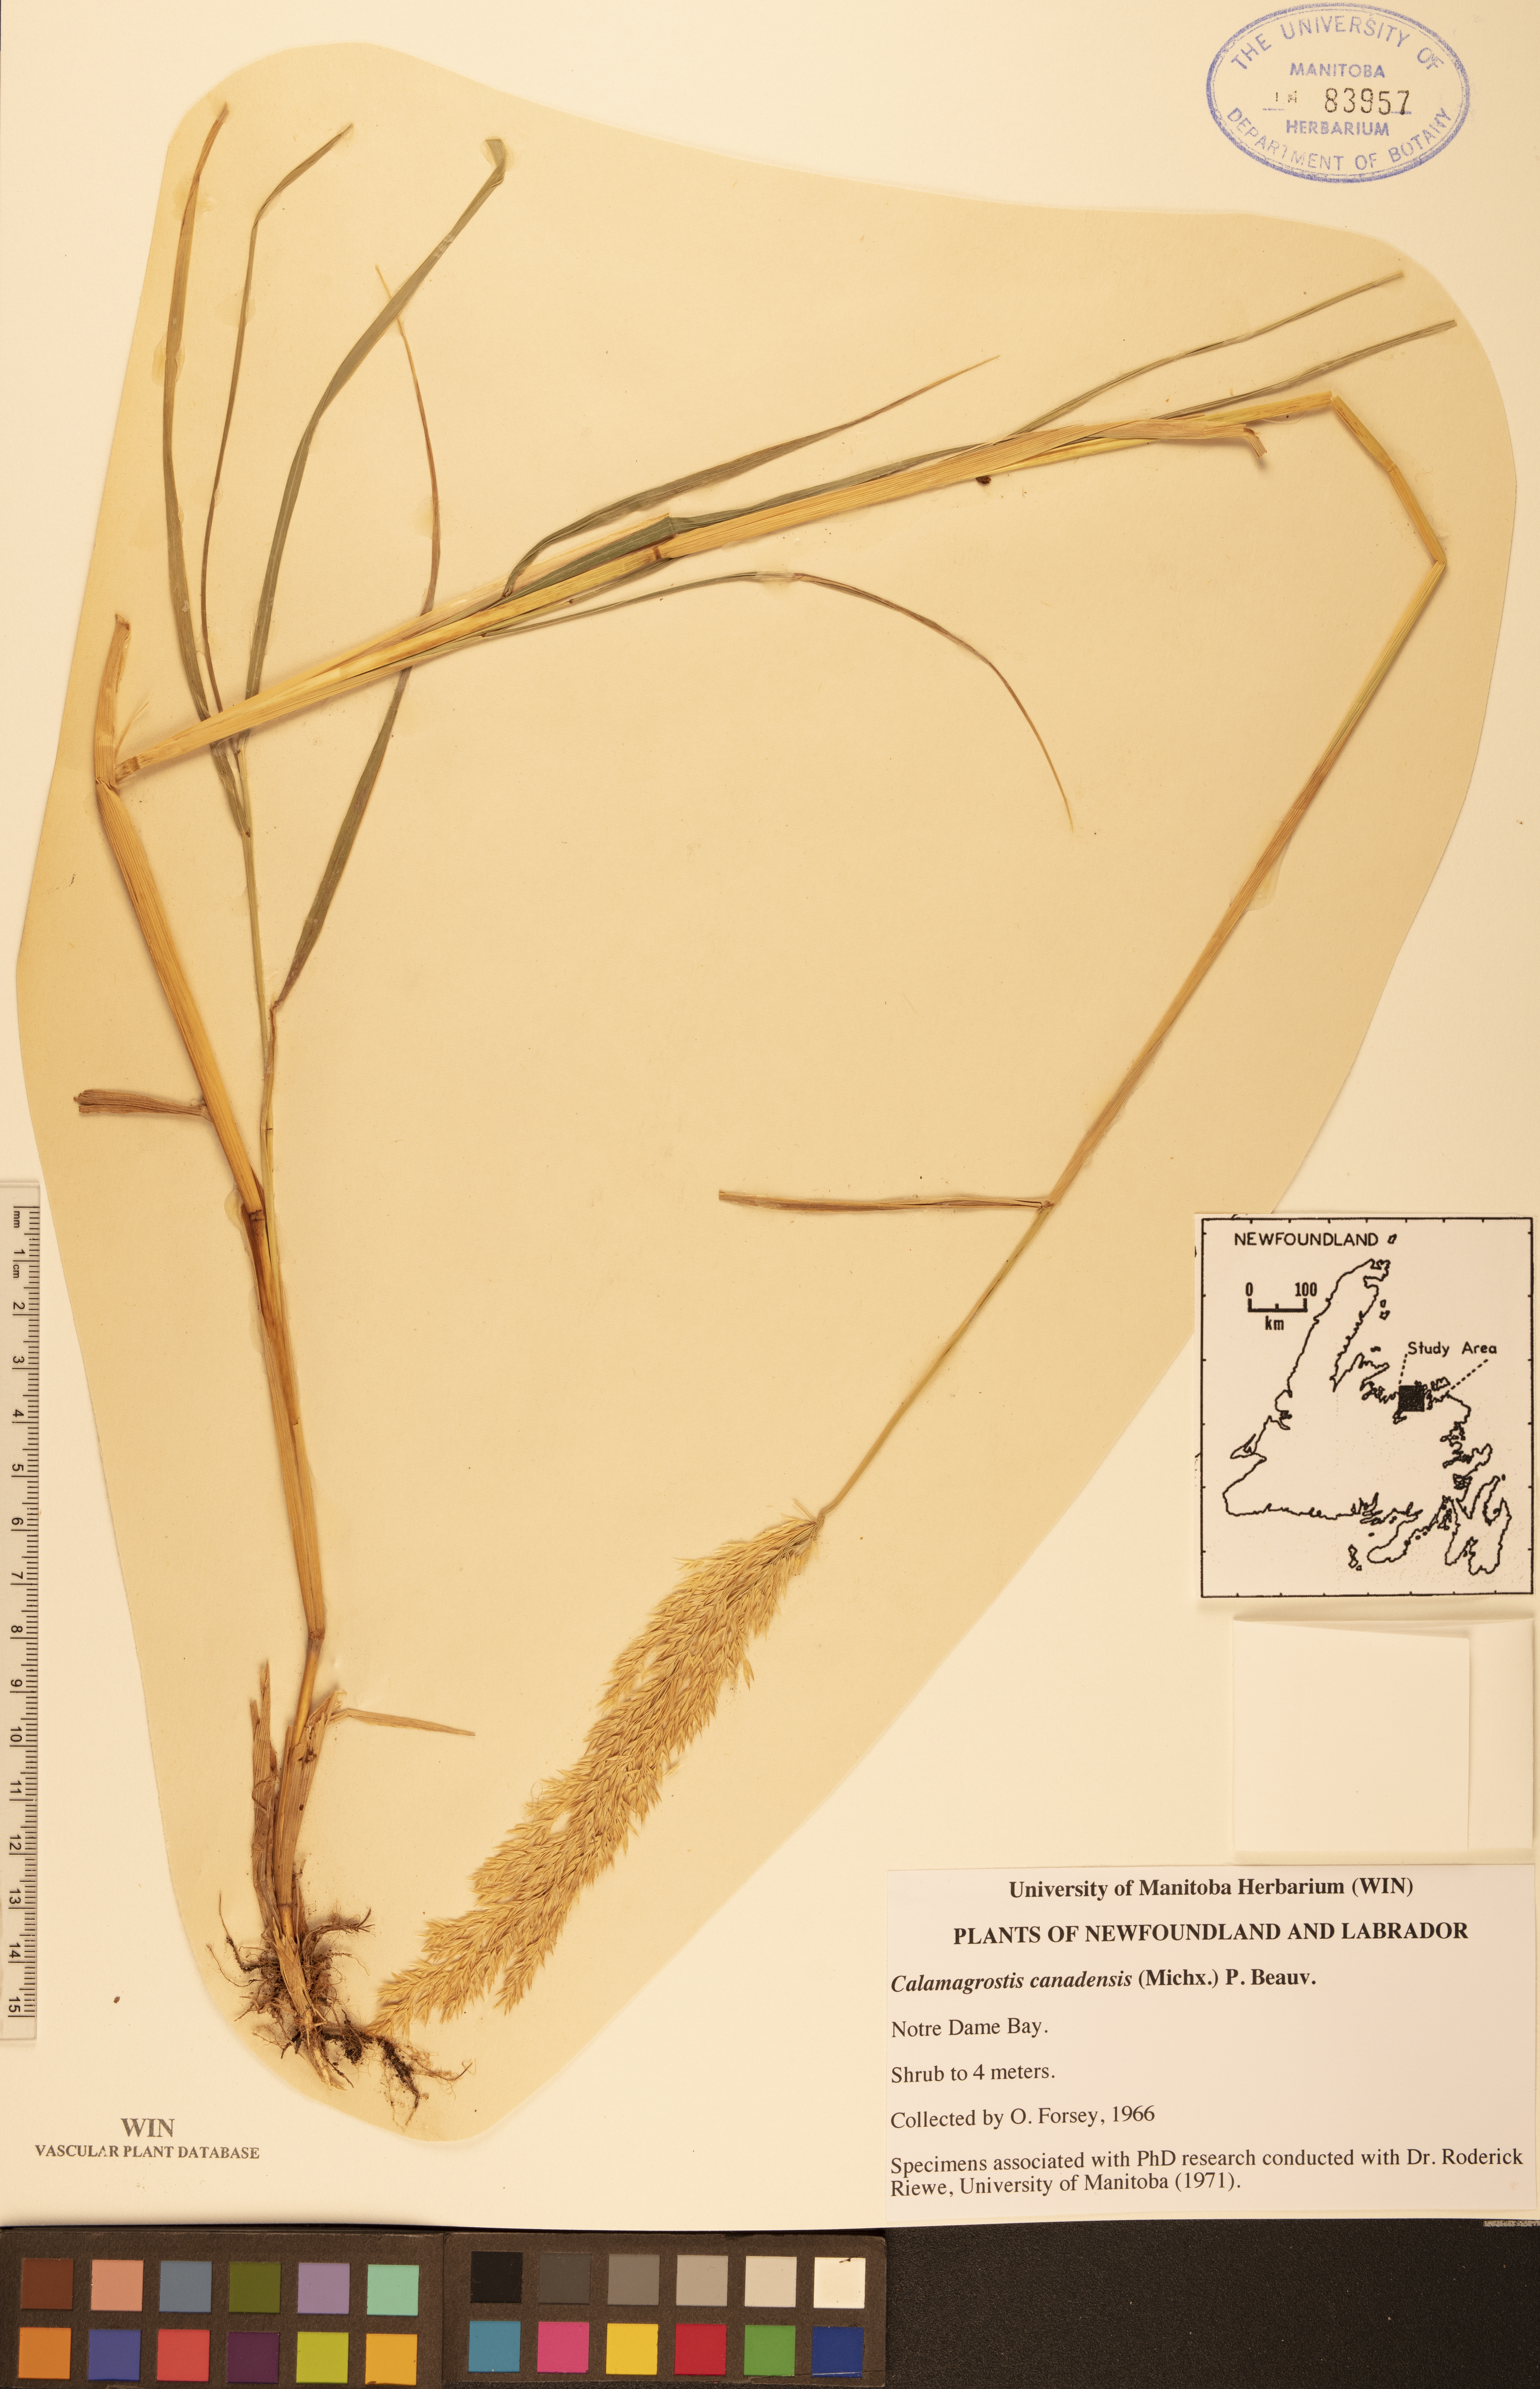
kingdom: Plantae
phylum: Tracheophyta
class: Liliopsida
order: Poales
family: Poaceae
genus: Calamagrostis
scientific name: Calamagrostis canadensis
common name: Canada bluejoint
